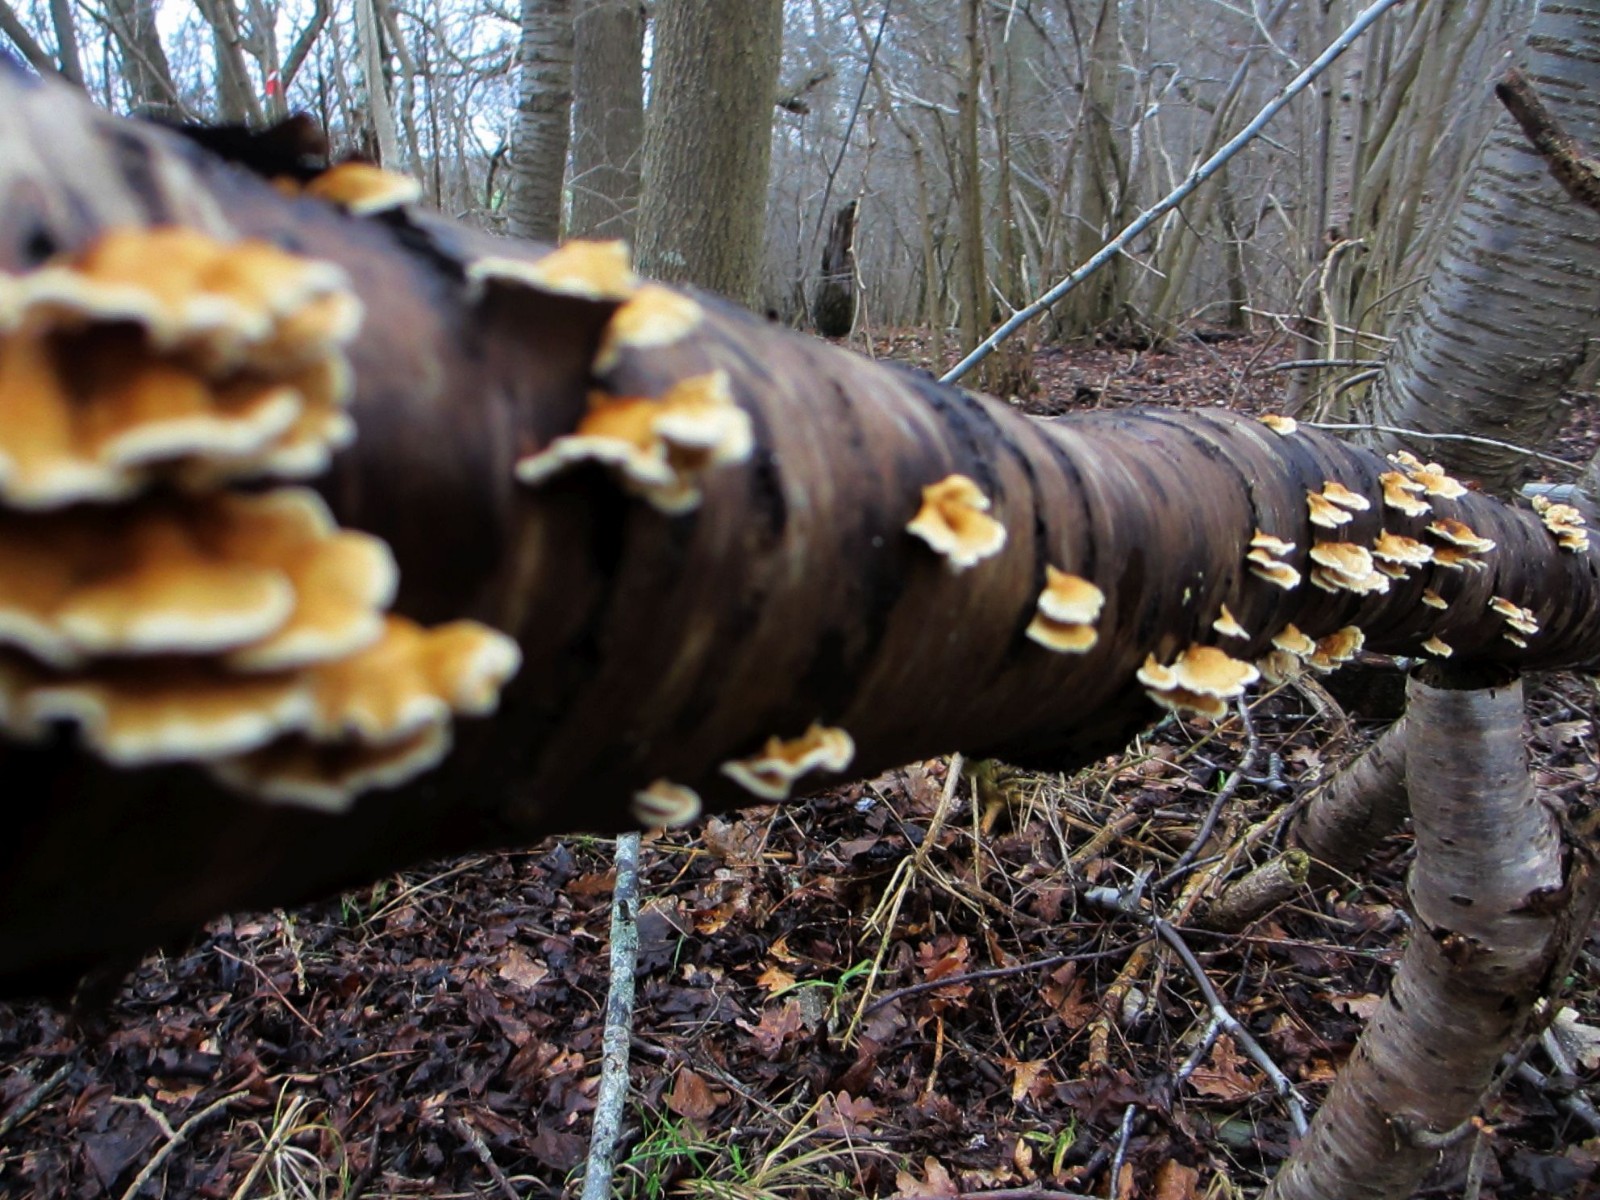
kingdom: Fungi
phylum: Basidiomycota
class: Agaricomycetes
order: Amylocorticiales
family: Amylocorticiaceae
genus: Plicaturopsis
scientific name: Plicaturopsis crispa
